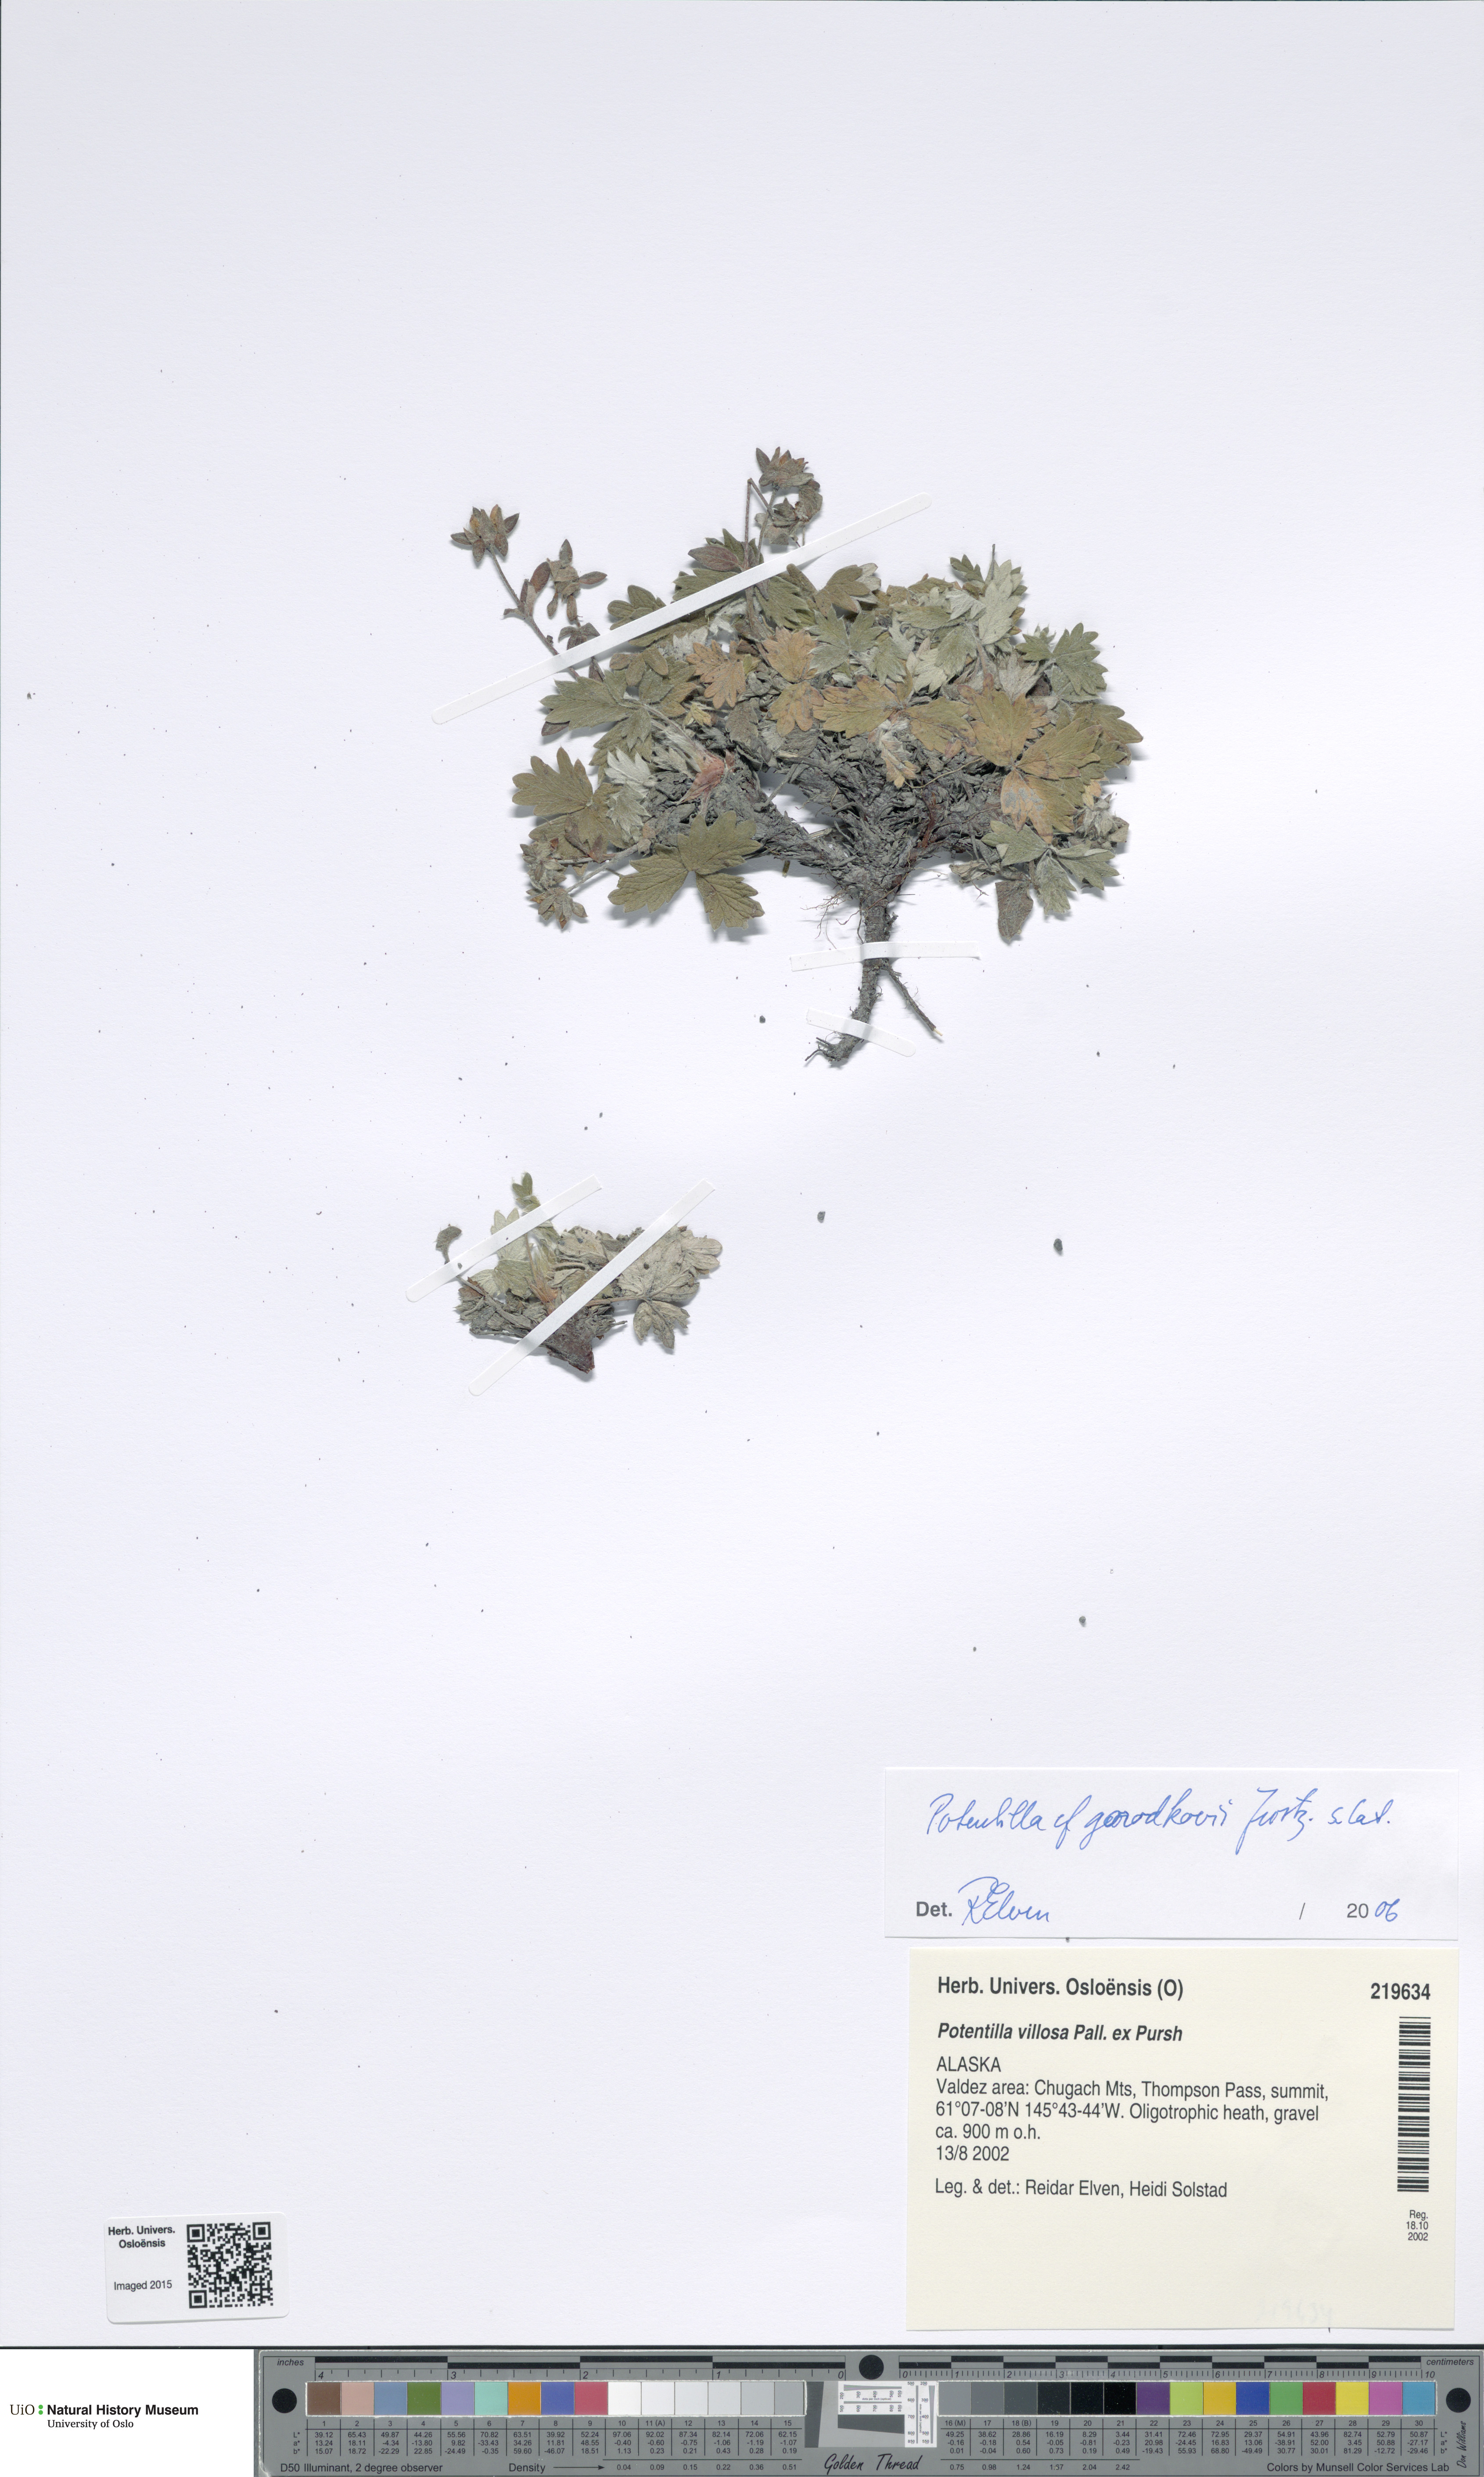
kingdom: Plantae
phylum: Tracheophyta
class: Magnoliopsida
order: Rosales
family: Rosaceae
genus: Potentilla
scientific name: Potentilla villosa
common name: Northern cinquefoil
